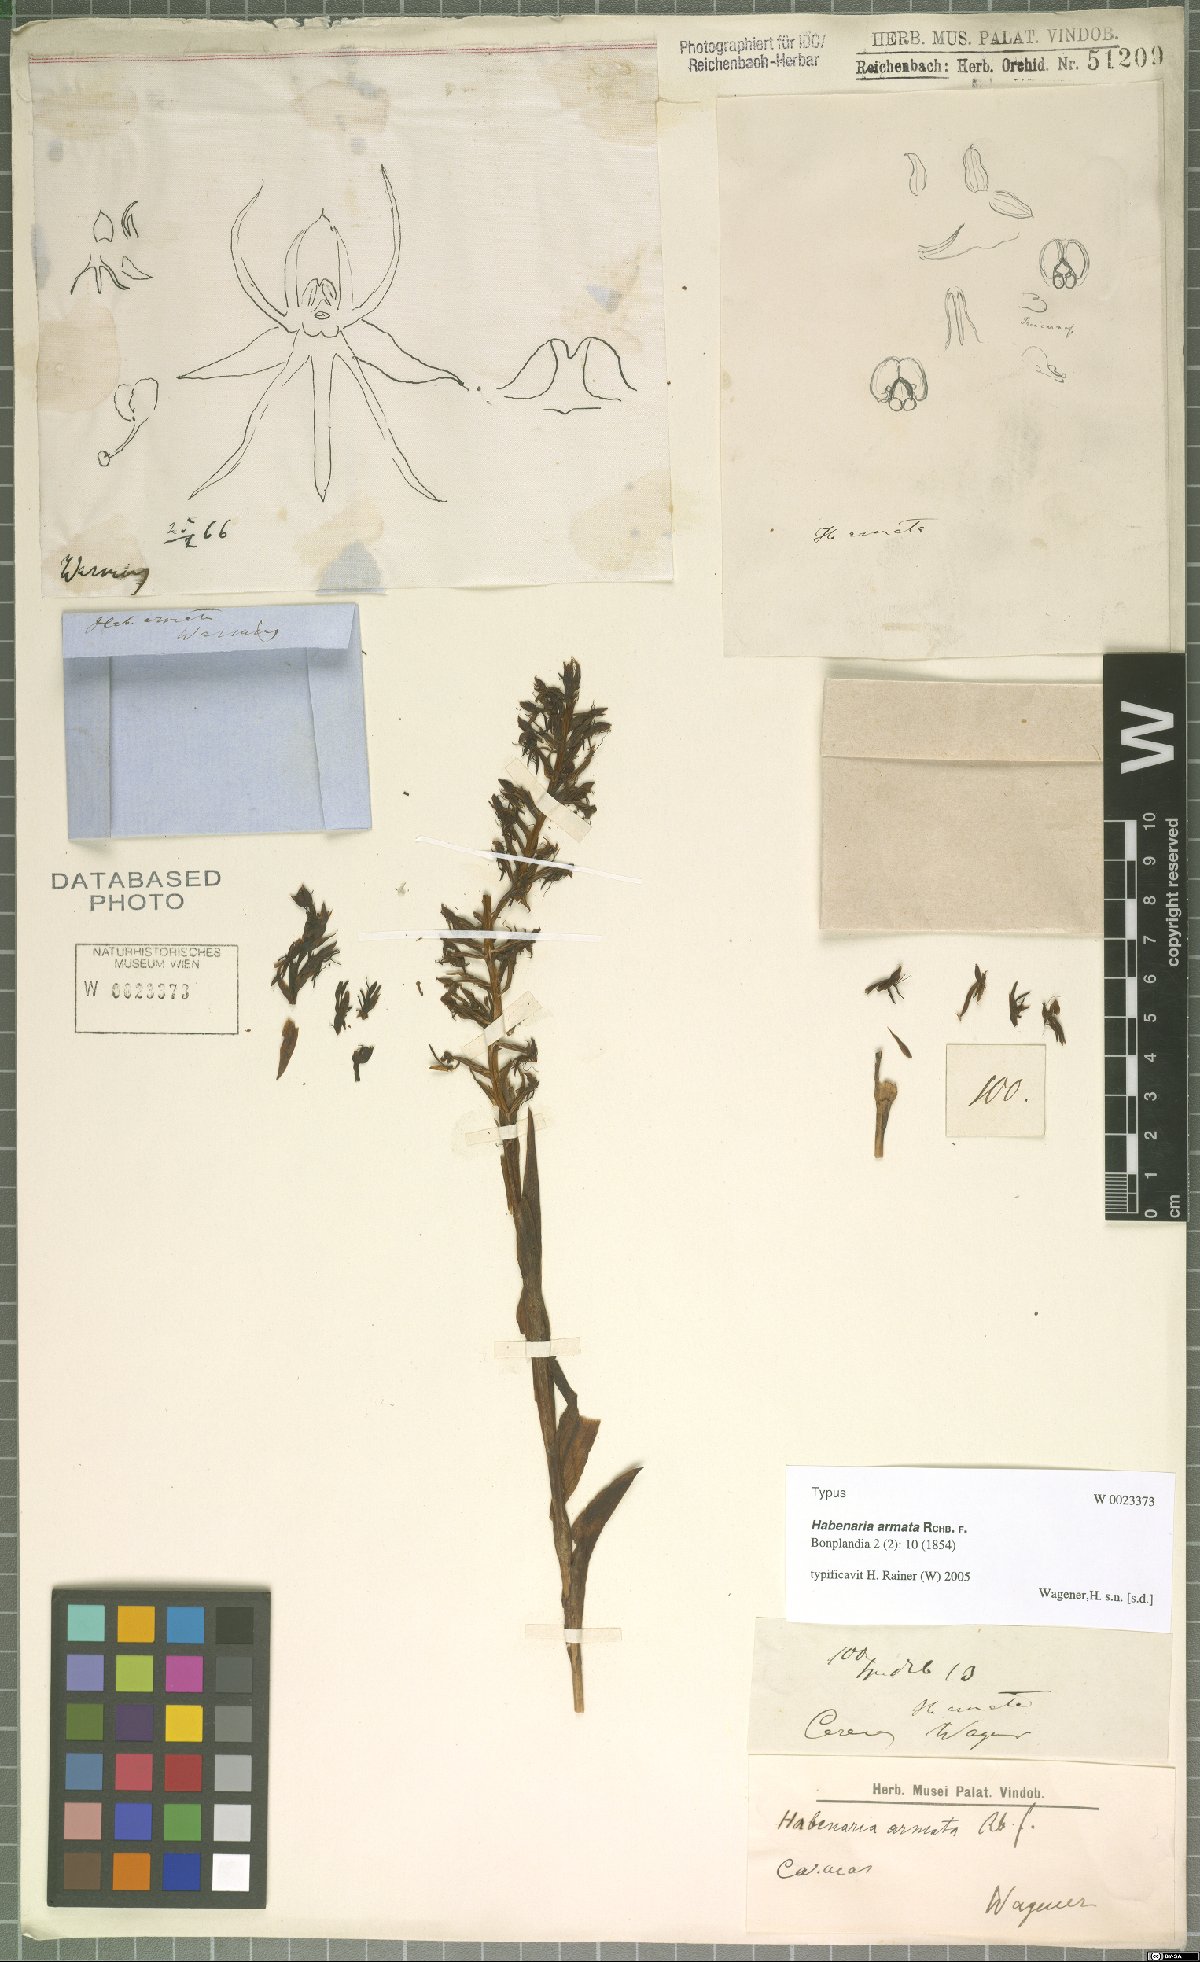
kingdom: Plantae
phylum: Tracheophyta
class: Liliopsida
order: Asparagales
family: Orchidaceae
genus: Habenaria
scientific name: Habenaria armata
